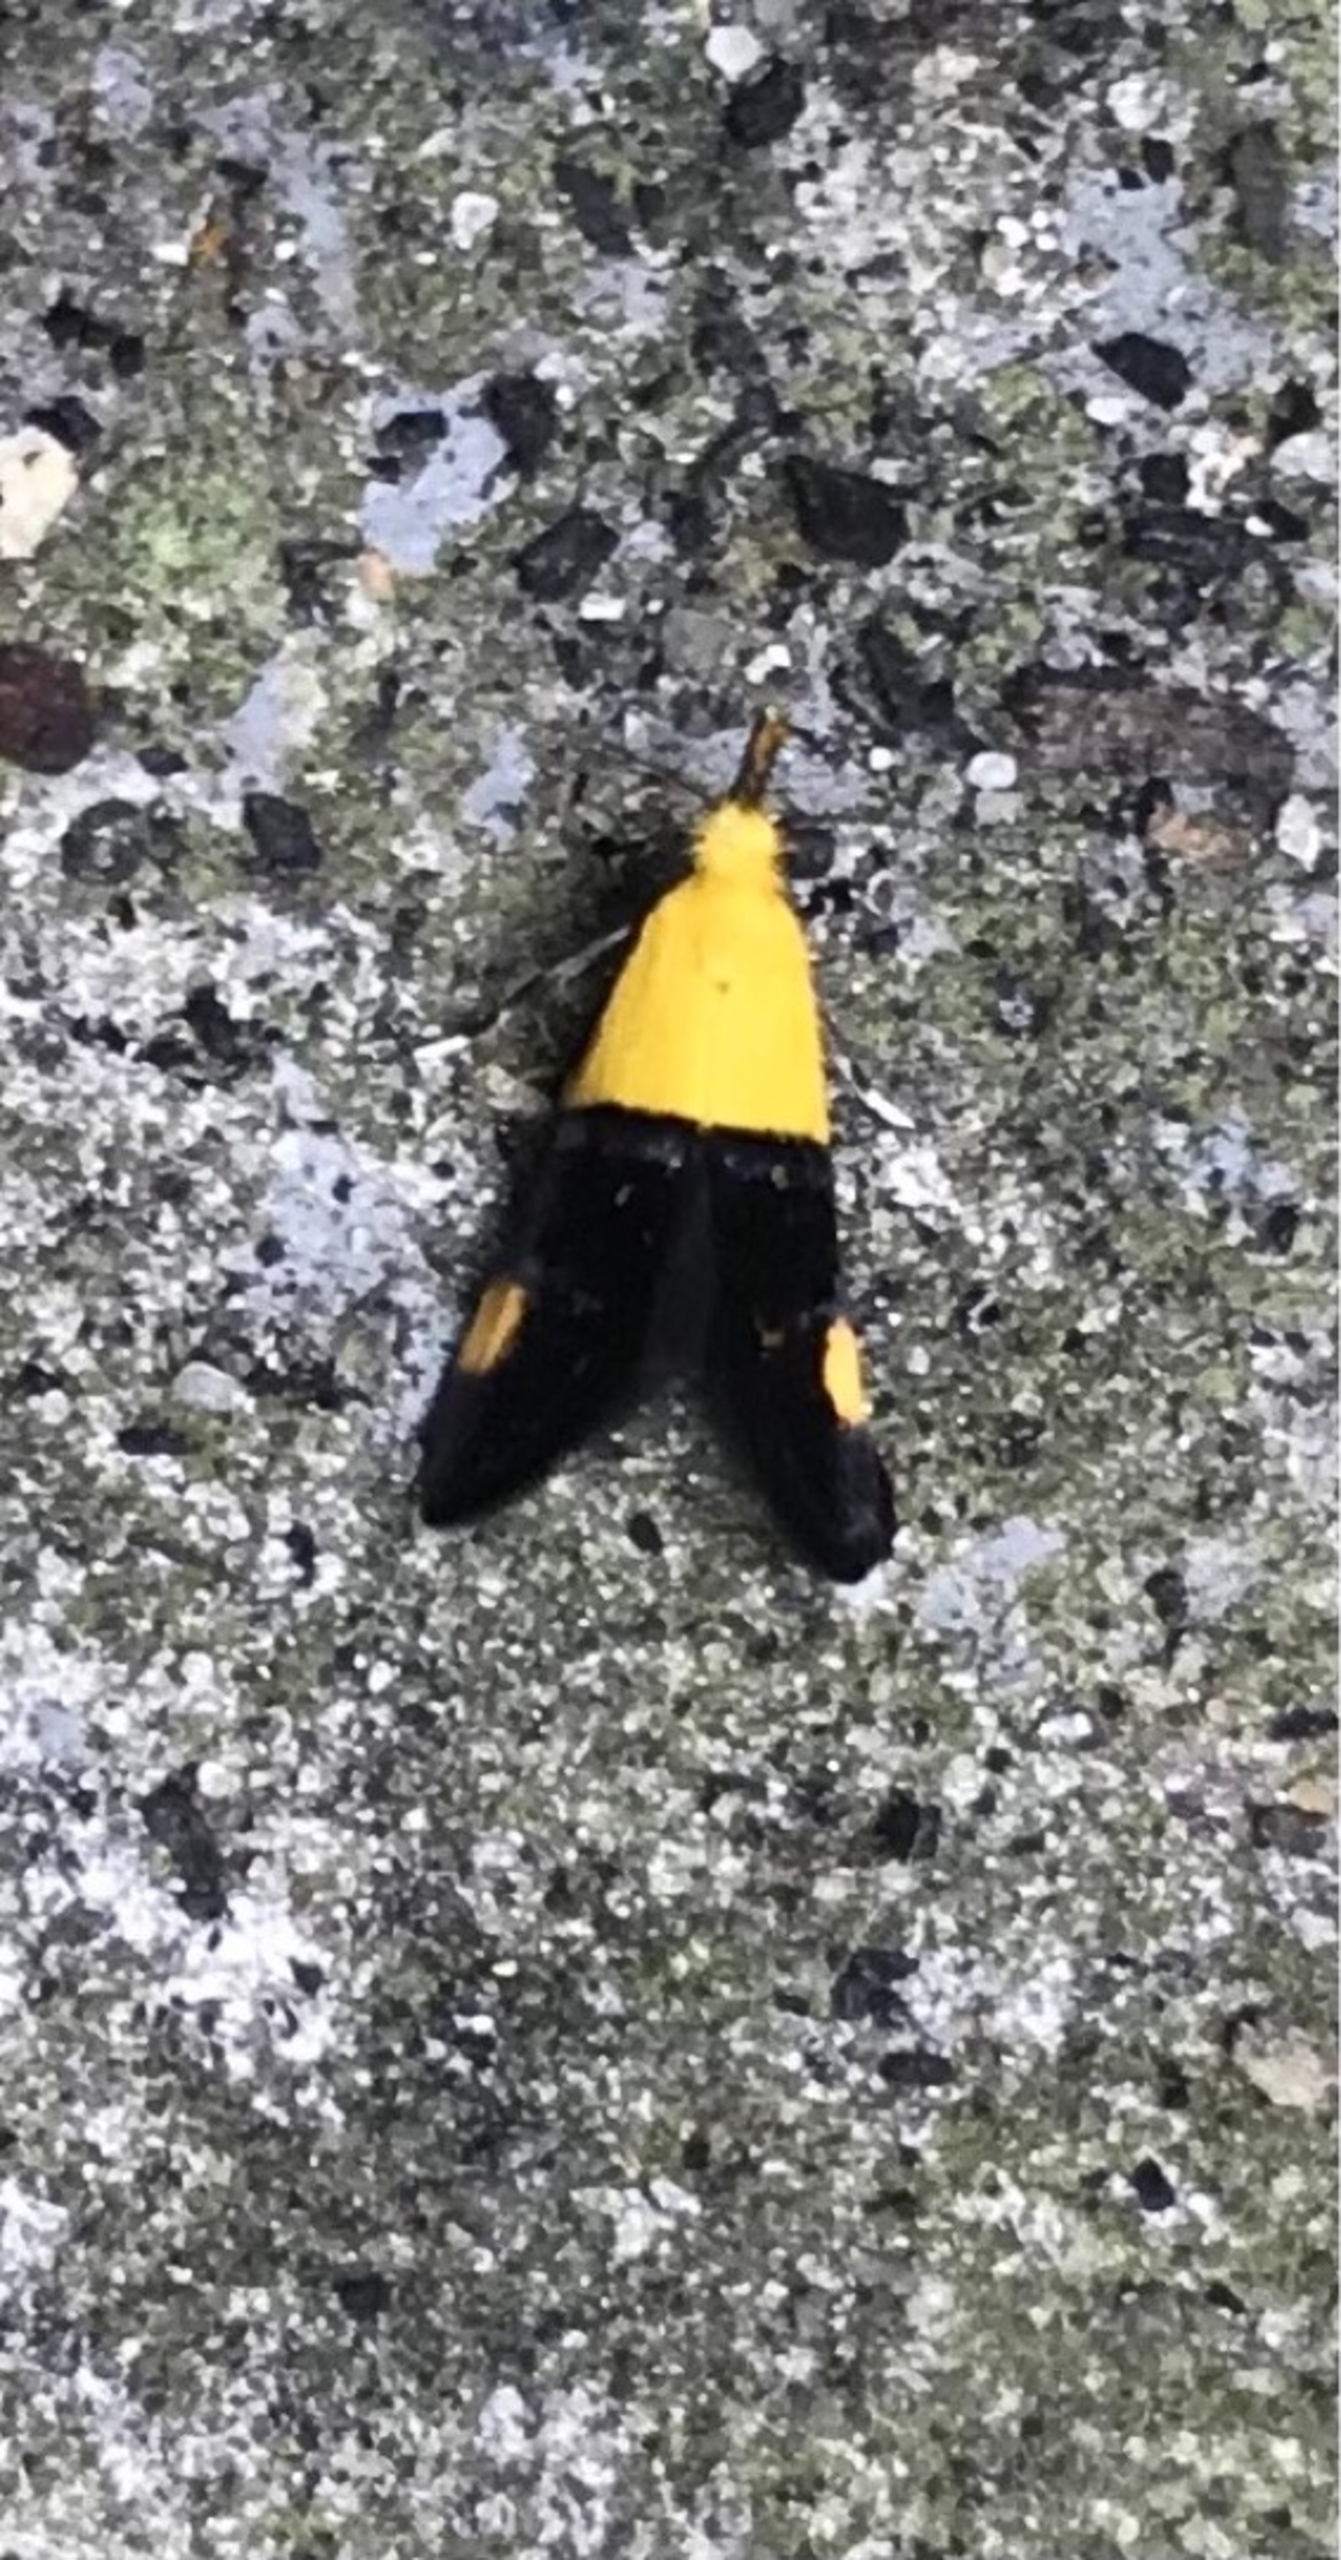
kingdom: Animalia
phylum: Arthropoda
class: Insecta
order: Lepidoptera
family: Oecophoridae
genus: Oecophora
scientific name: Oecophora bractella
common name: Tofarvet prydvinge
